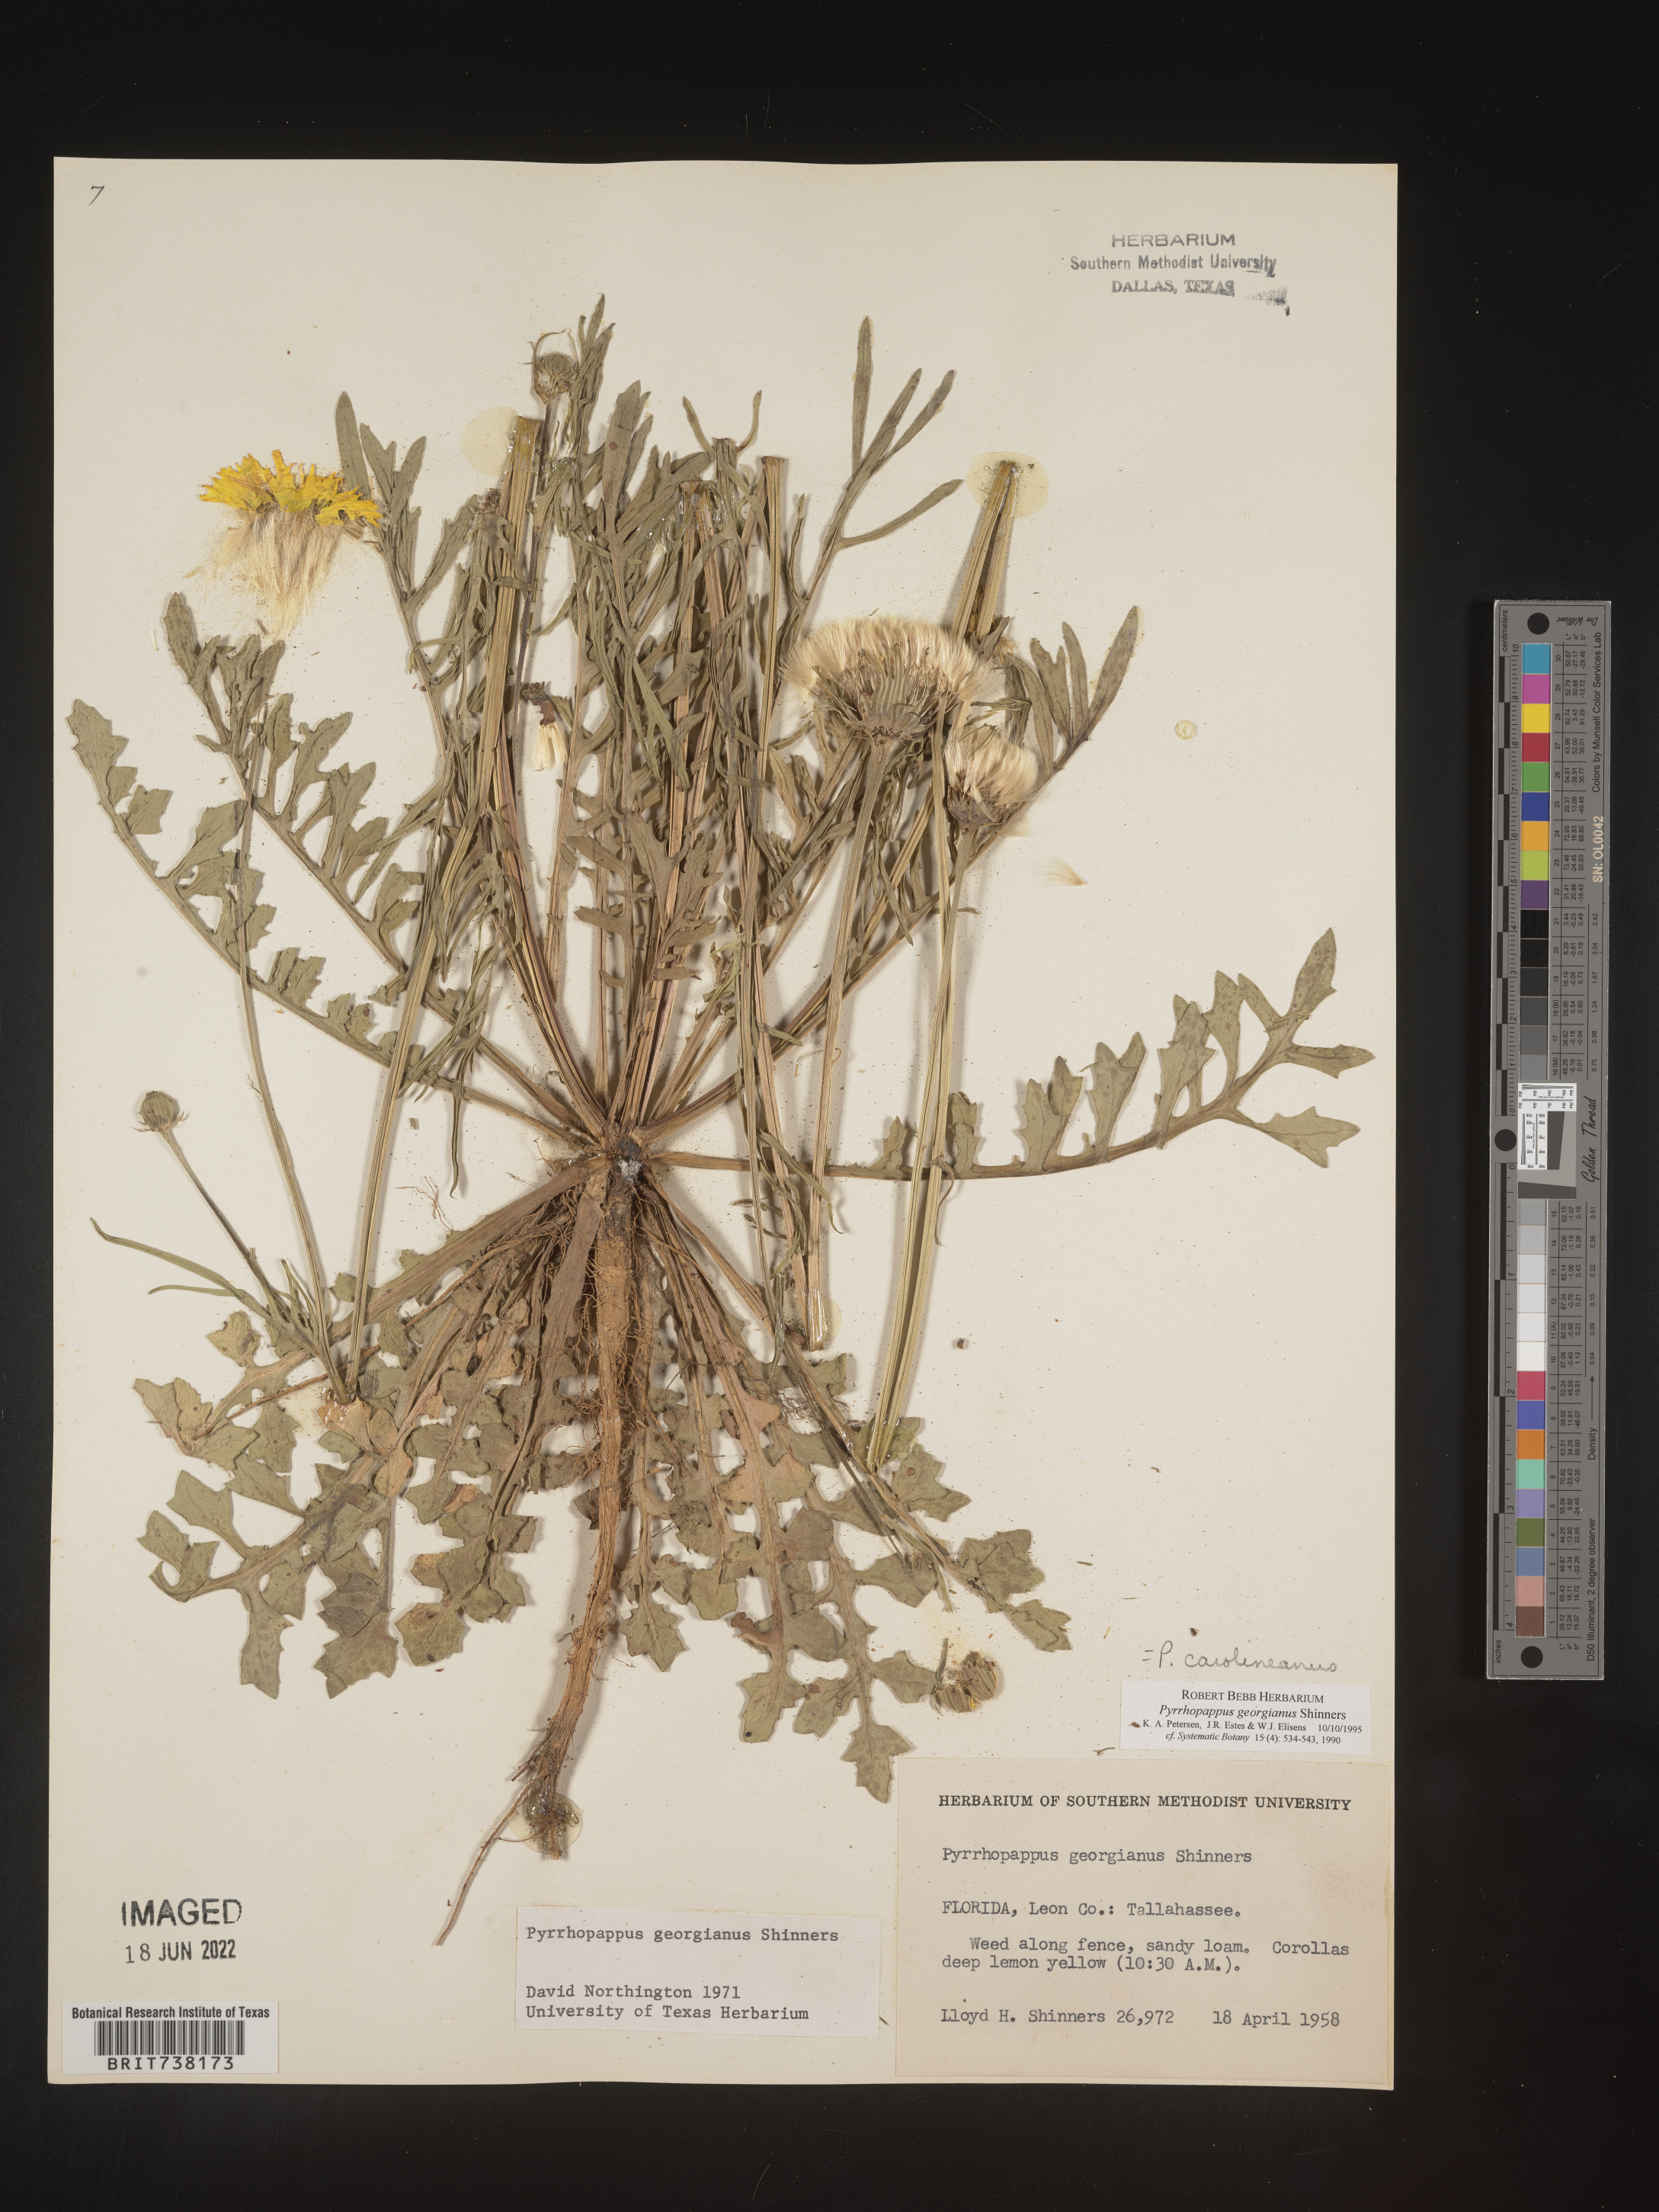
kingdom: Plantae
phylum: Tracheophyta
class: Magnoliopsida
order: Asterales
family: Asteraceae
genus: Pyrrhopappus
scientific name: Pyrrhopappus carolinianus
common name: Carolina desert-chicory
